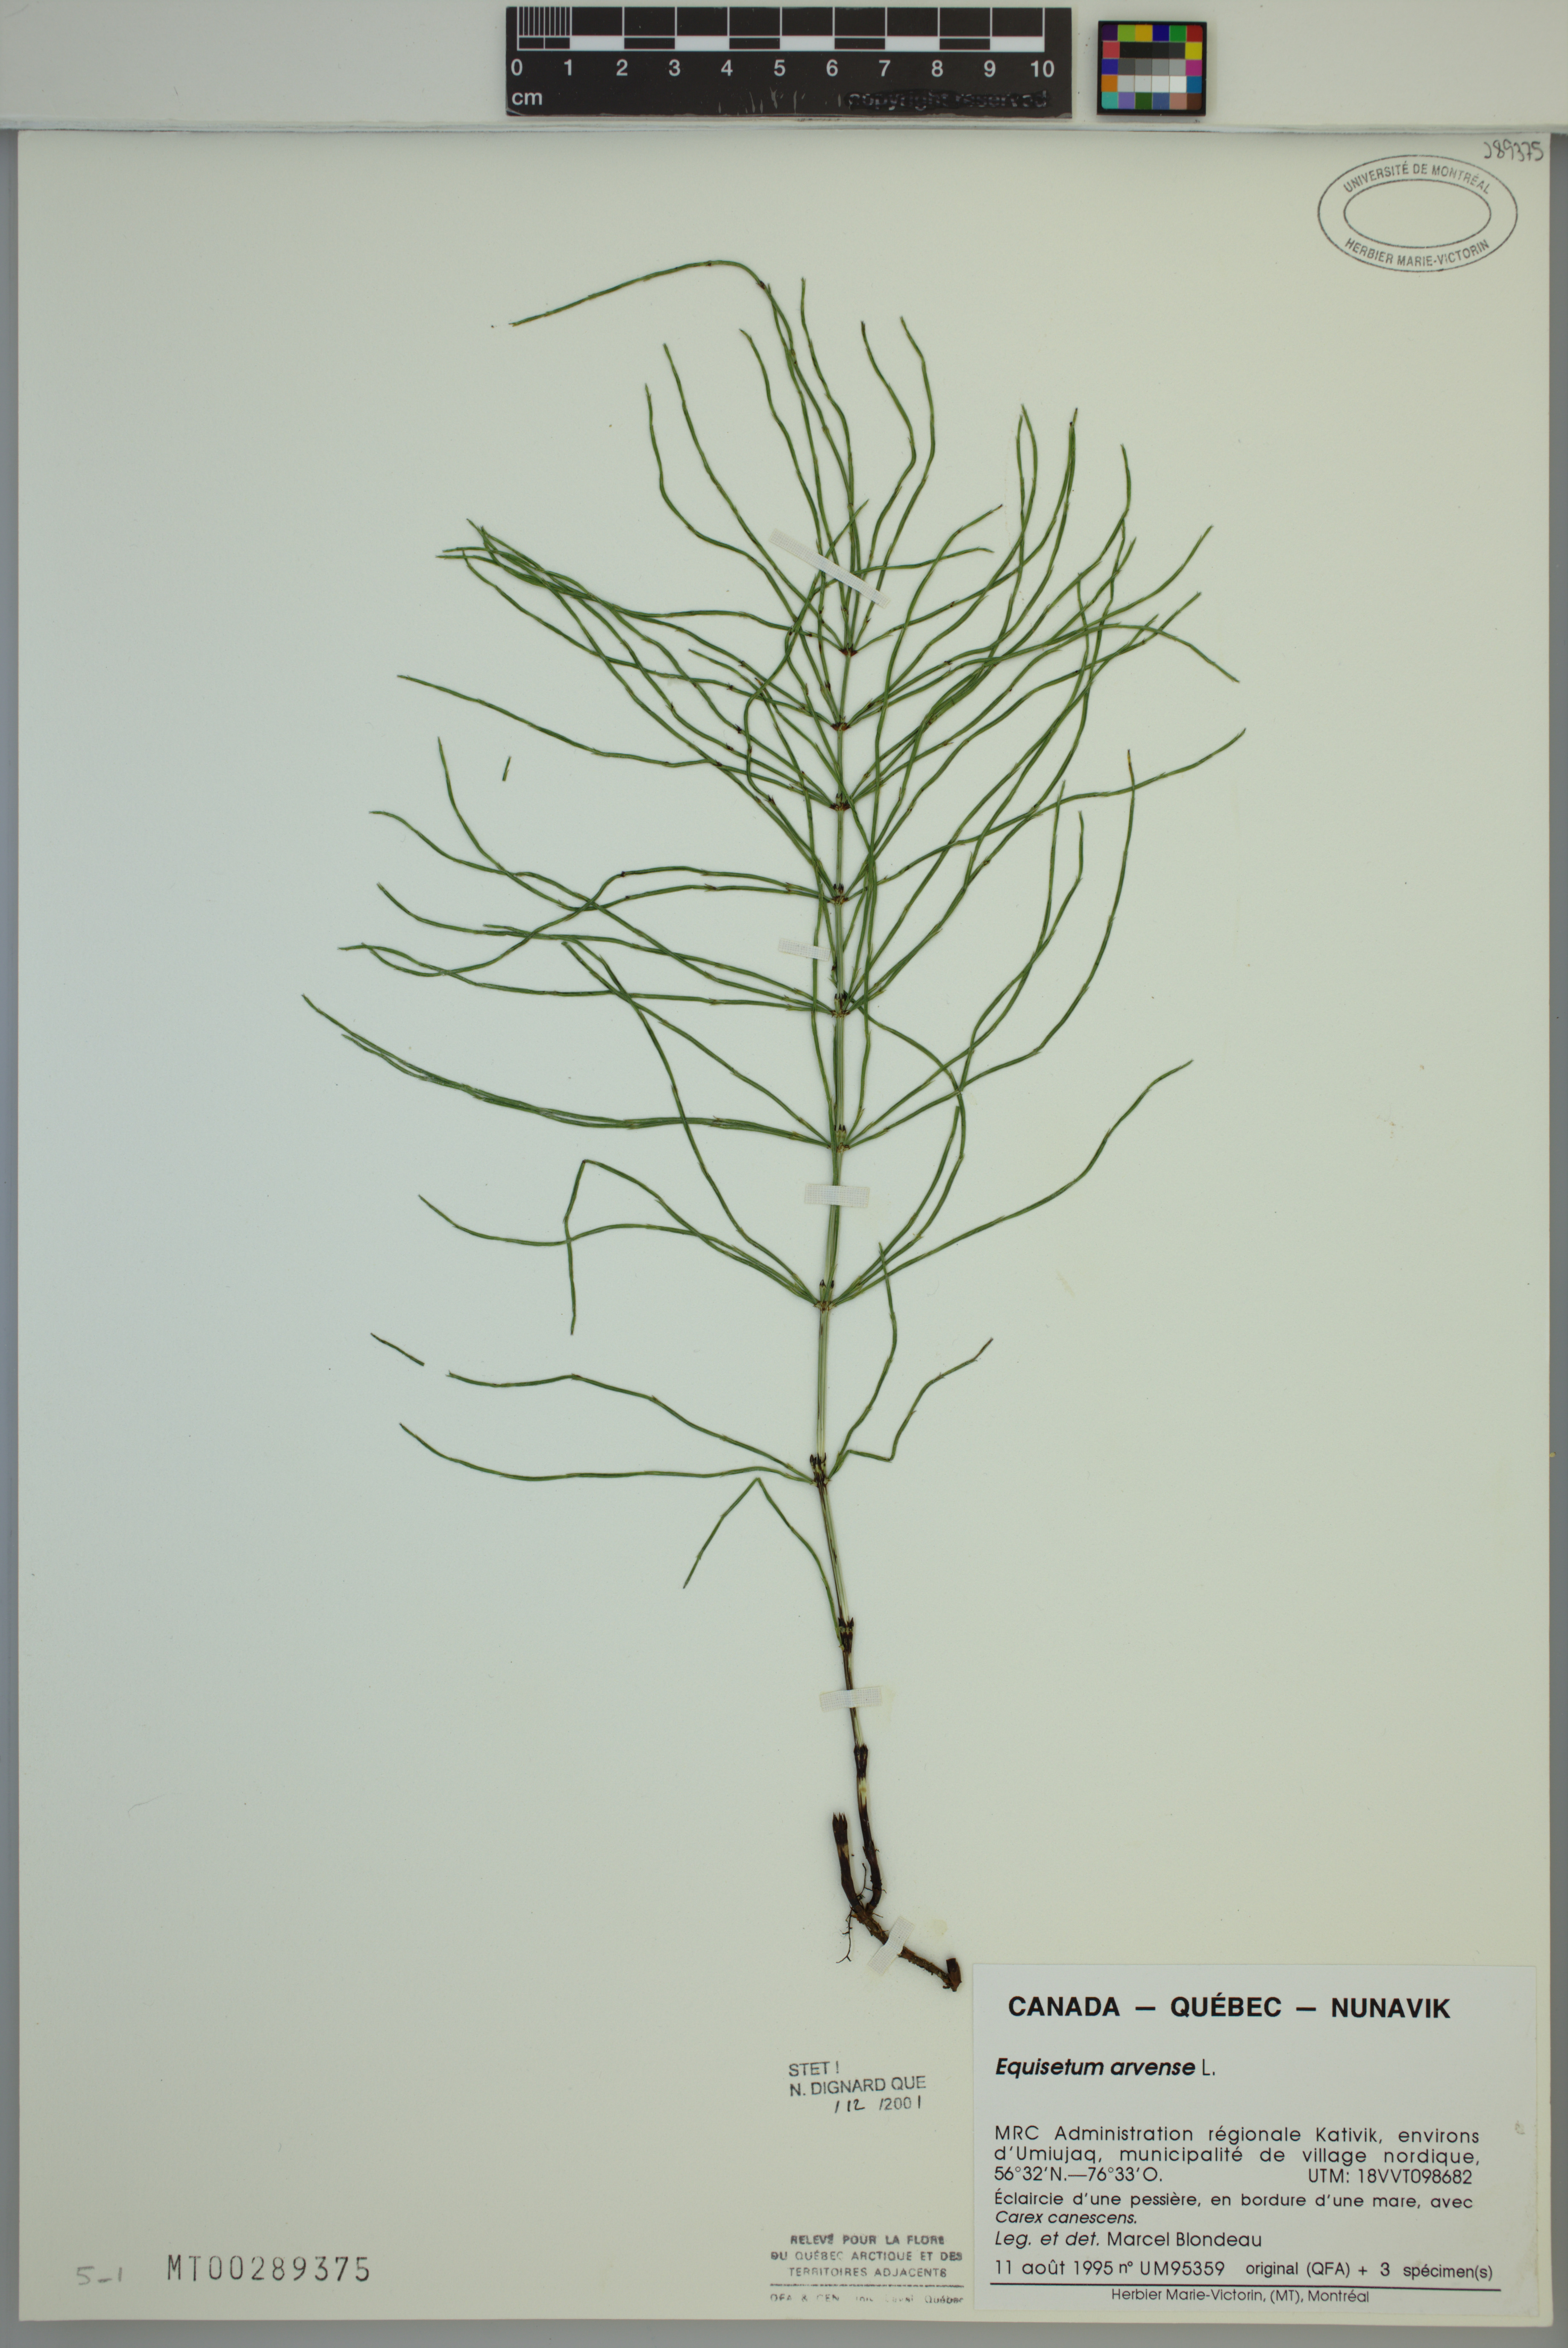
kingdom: Plantae
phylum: Tracheophyta
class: Polypodiopsida
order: Equisetales
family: Equisetaceae
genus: Equisetum
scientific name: Equisetum arvense
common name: Field horsetail
